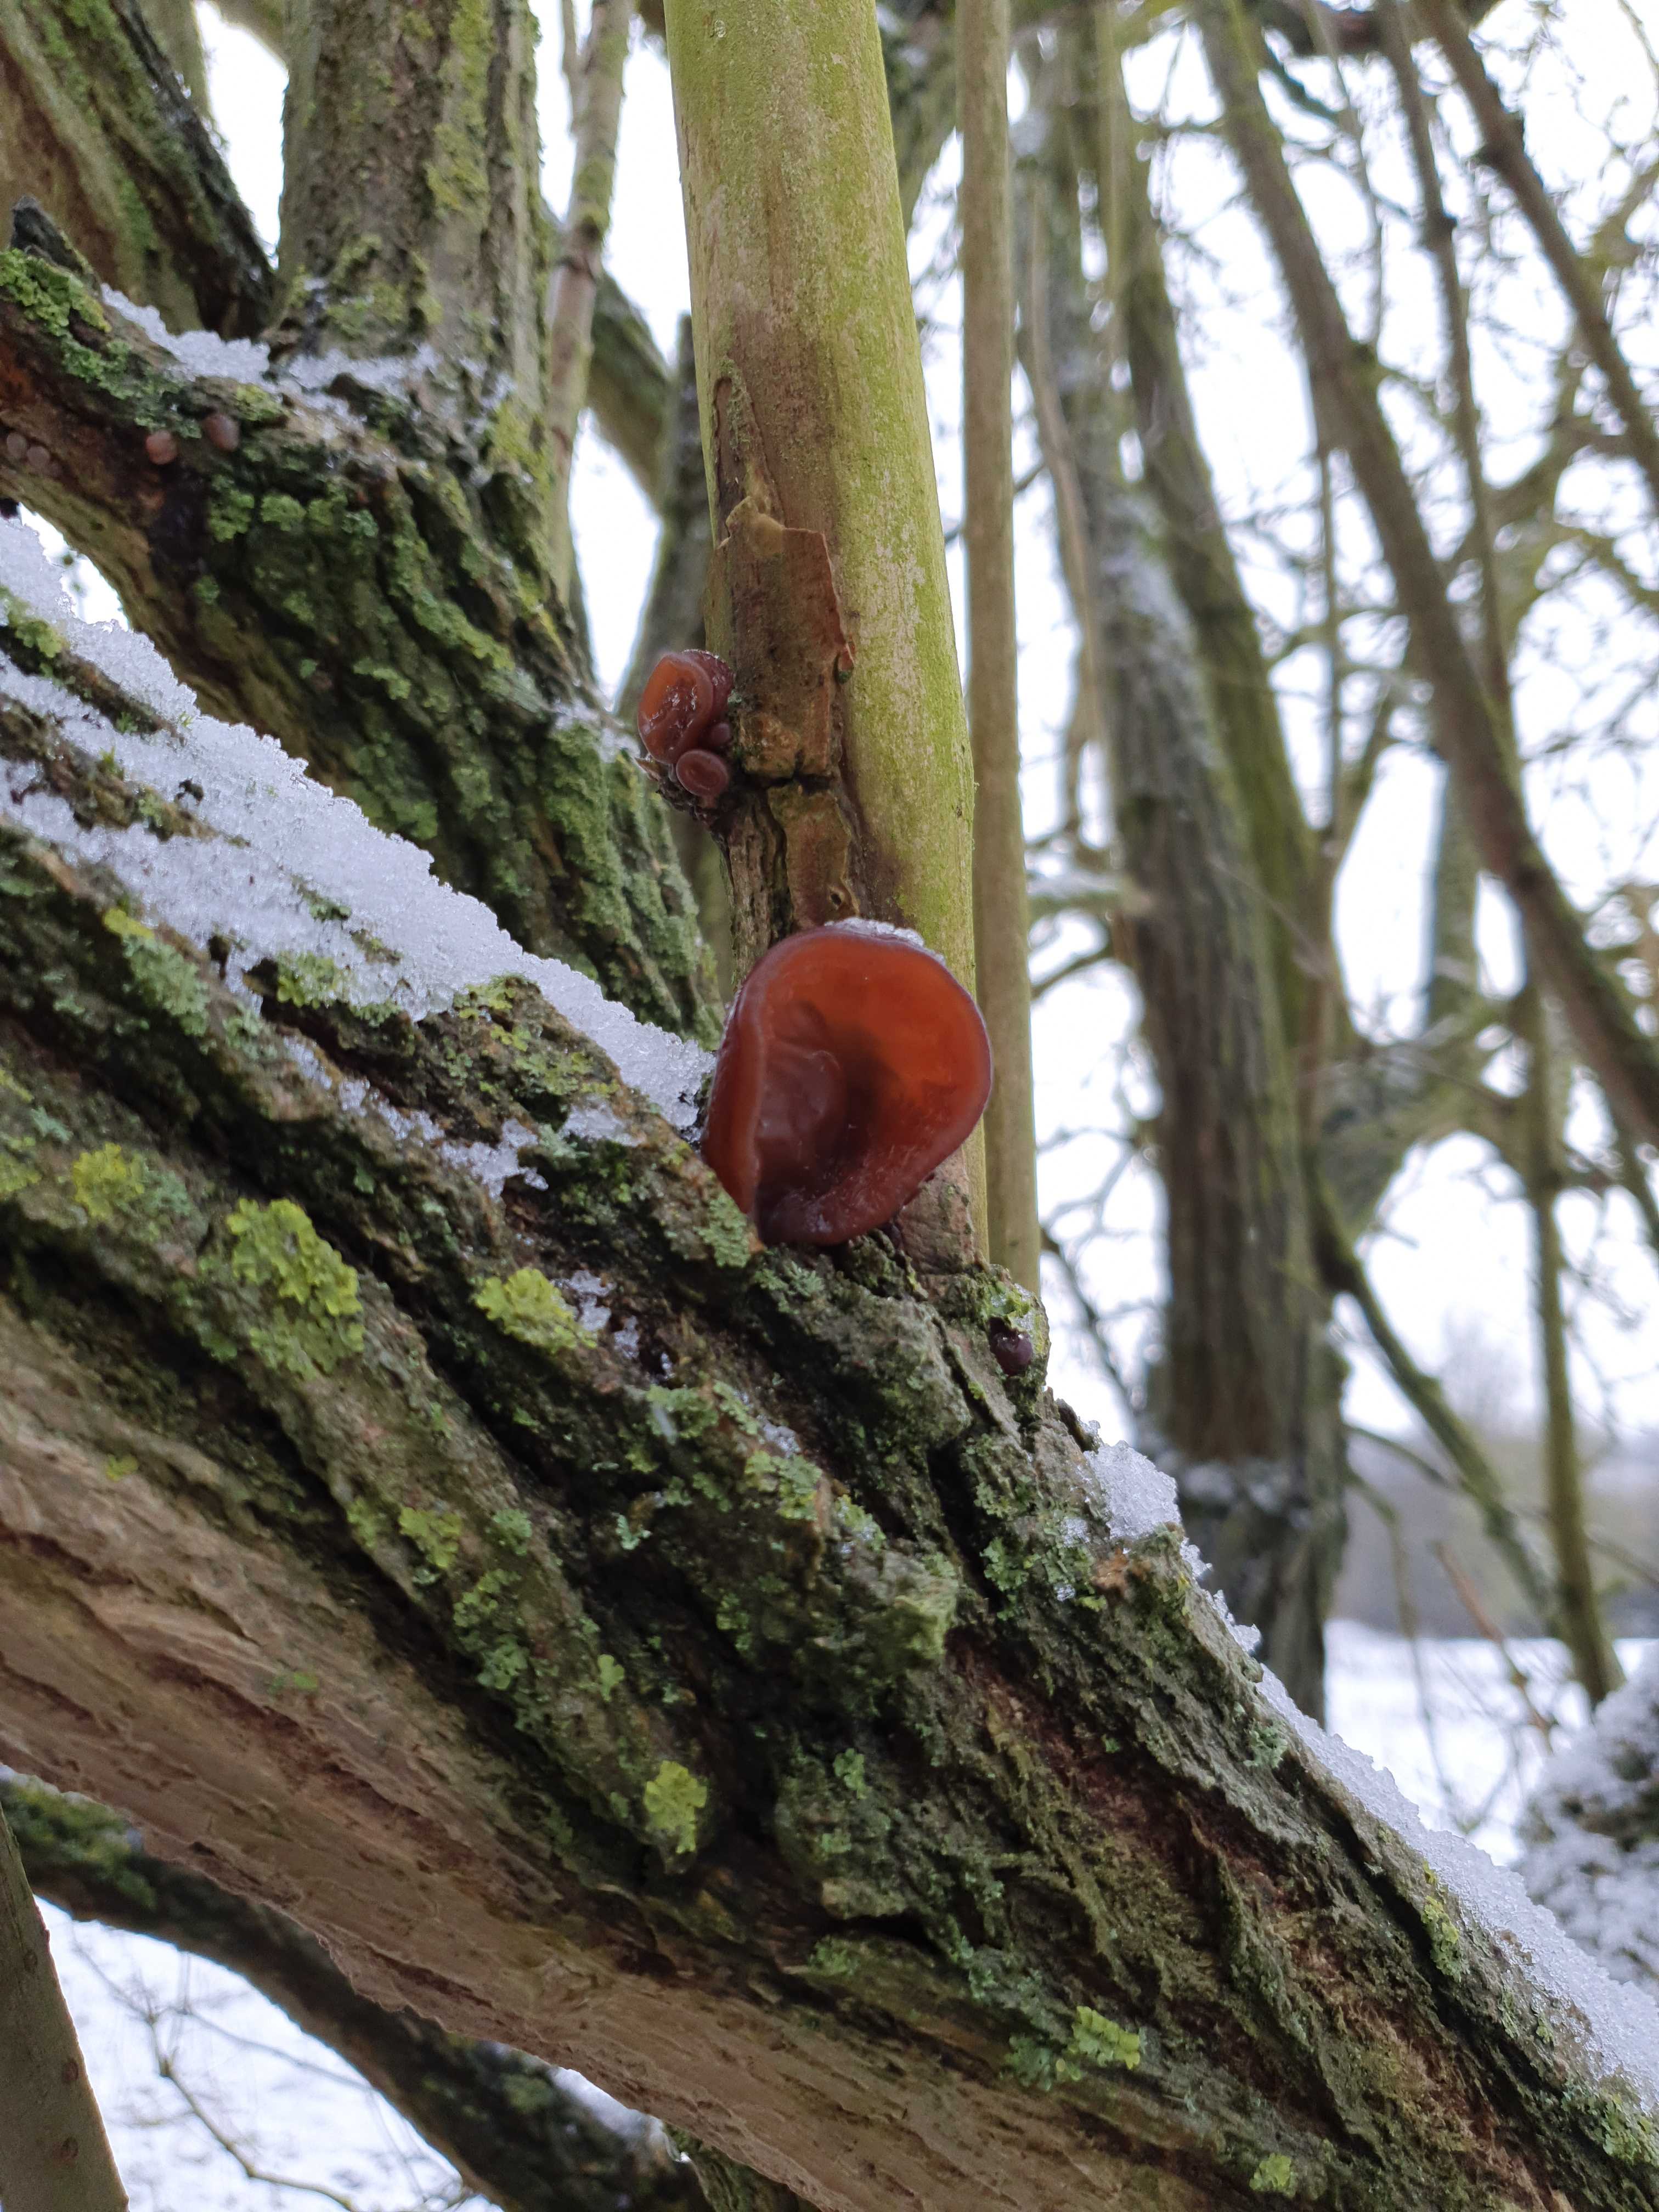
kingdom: Fungi
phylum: Basidiomycota
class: Agaricomycetes
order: Auriculariales
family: Auriculariaceae
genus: Auricularia
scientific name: Auricularia auricula-judae
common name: almindelig judasøre
